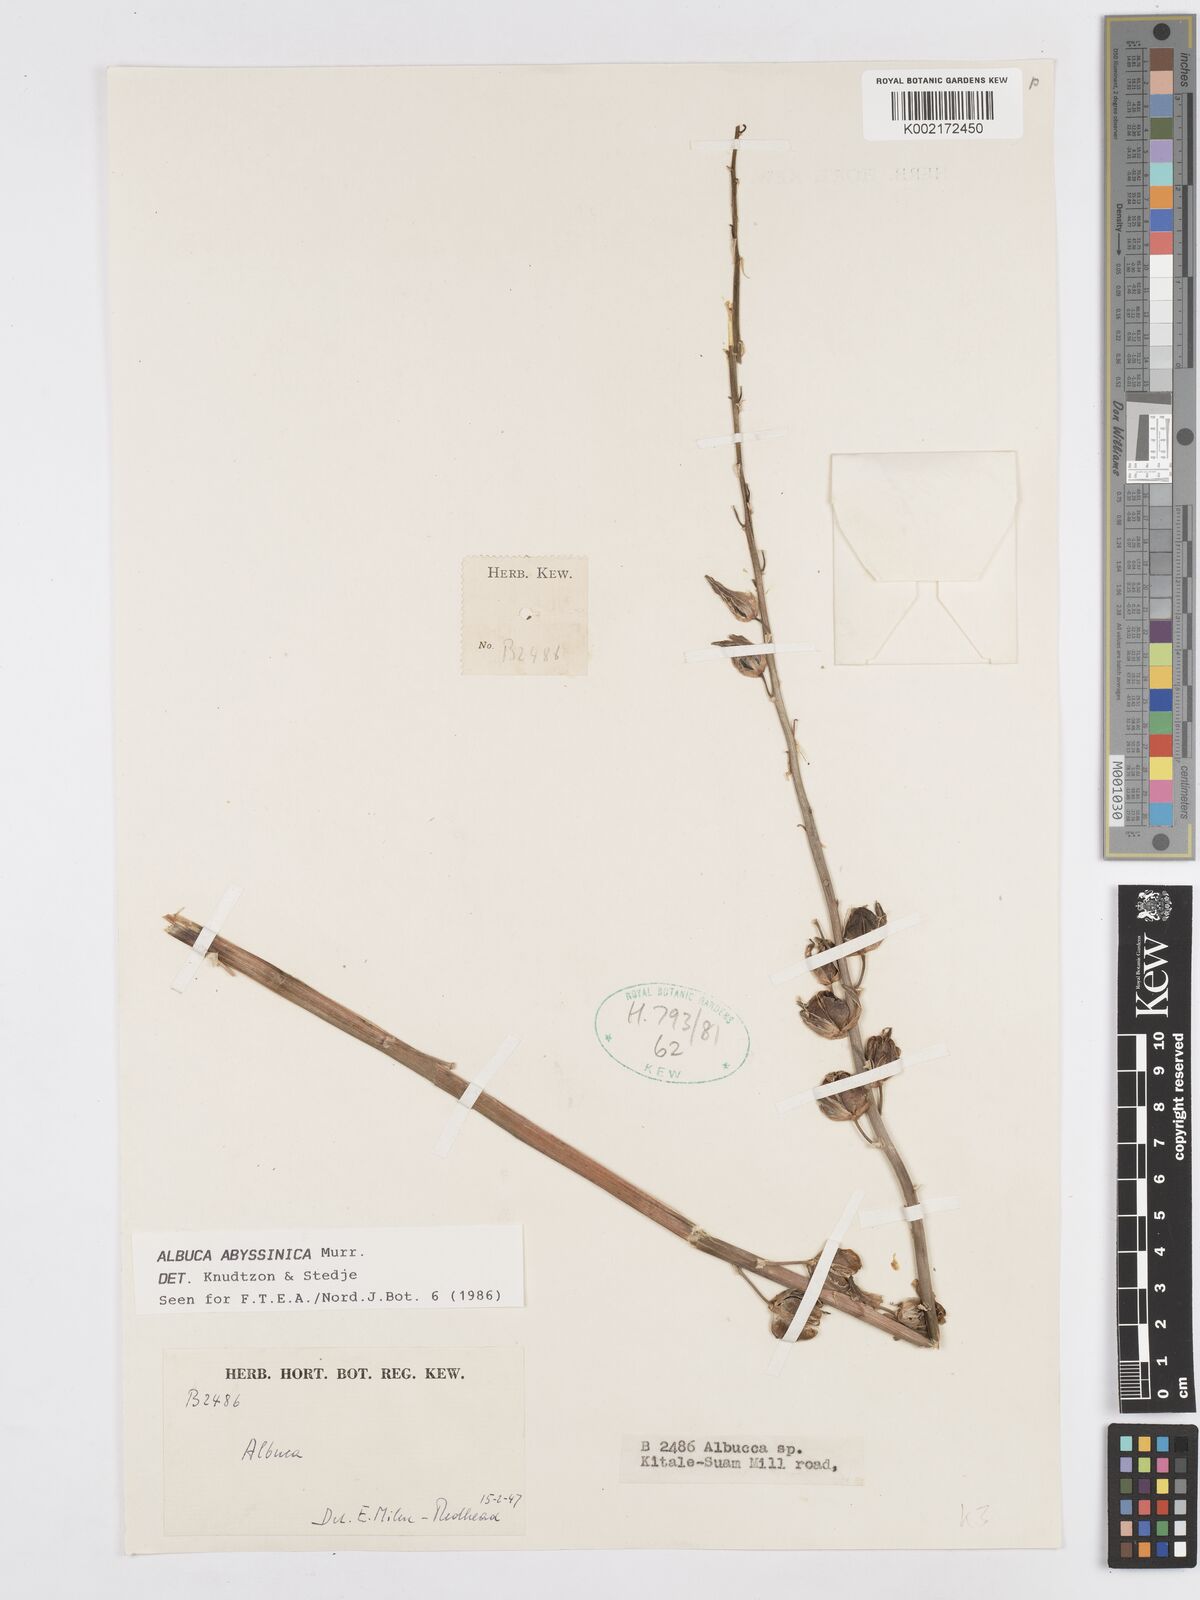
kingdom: Plantae
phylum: Tracheophyta
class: Liliopsida
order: Asparagales
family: Asparagaceae
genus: Albuca
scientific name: Albuca abyssinica
